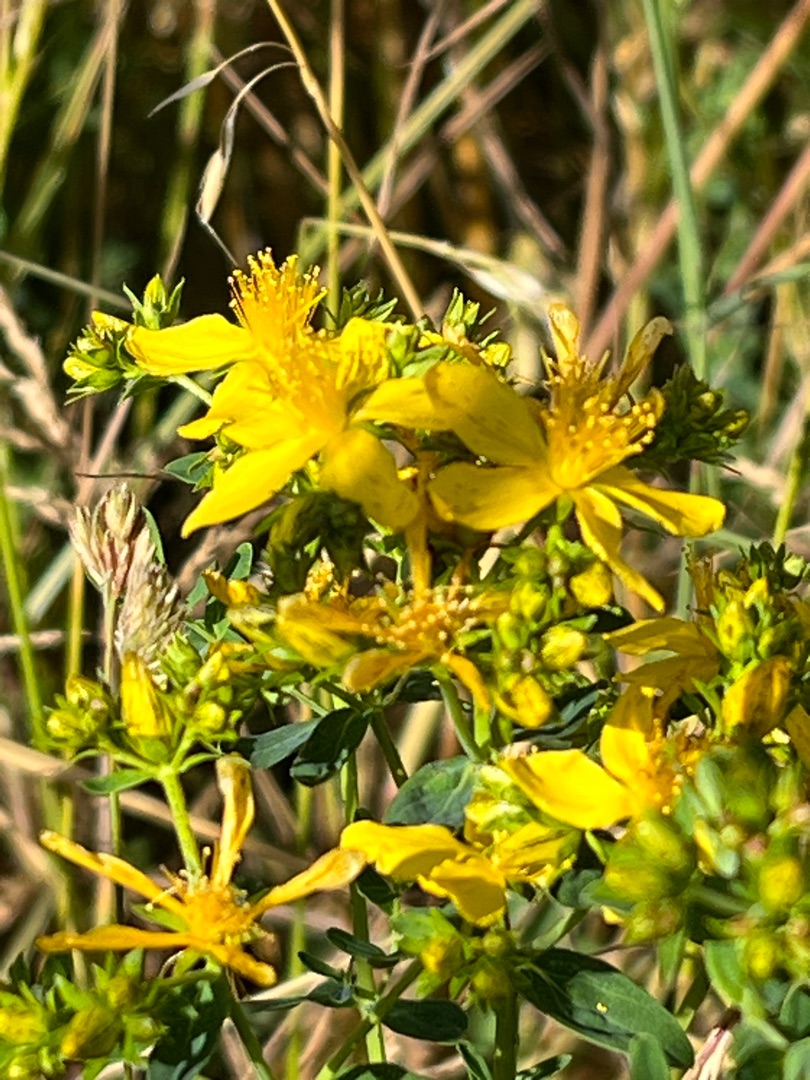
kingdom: Plantae
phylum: Tracheophyta
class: Magnoliopsida
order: Malpighiales
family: Hypericaceae
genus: Hypericum
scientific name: Hypericum perforatum
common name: Prikbladet perikon
